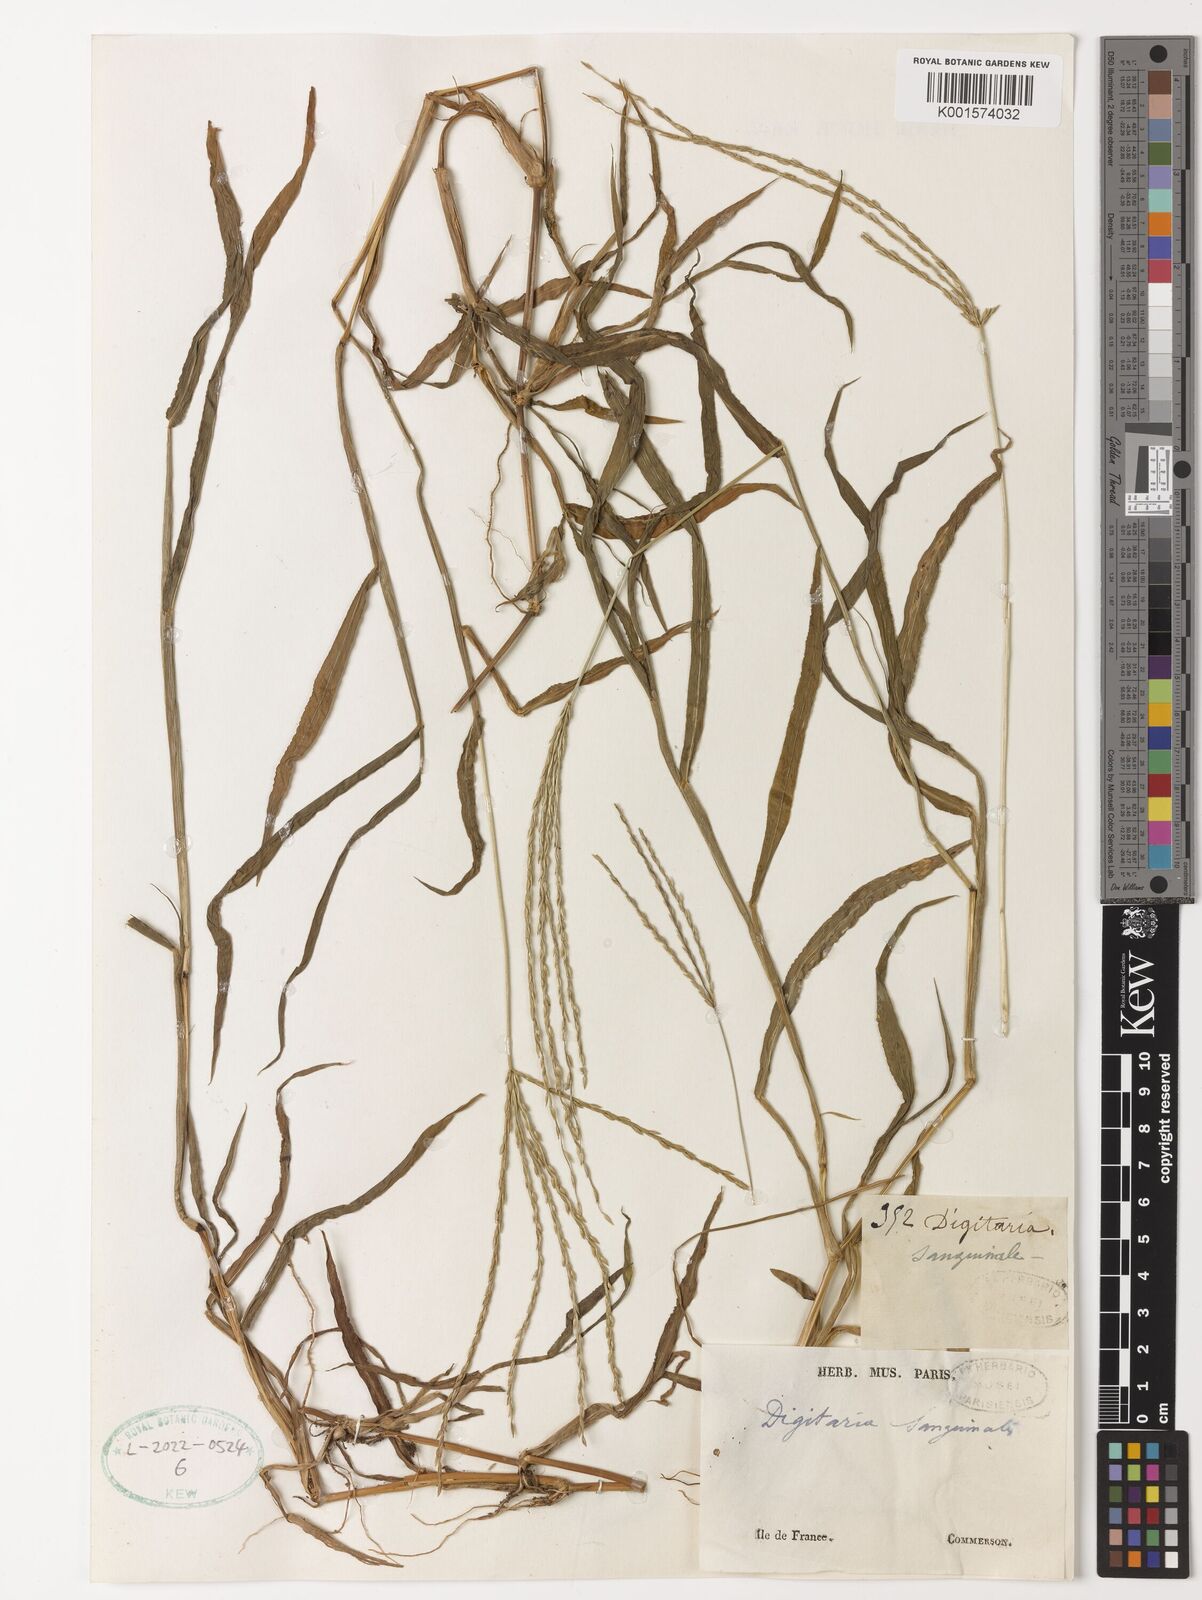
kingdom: Plantae
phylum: Tracheophyta
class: Liliopsida
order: Poales
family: Poaceae
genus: Digitaria
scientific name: Digitaria ciliaris
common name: Tropical finger-grass
